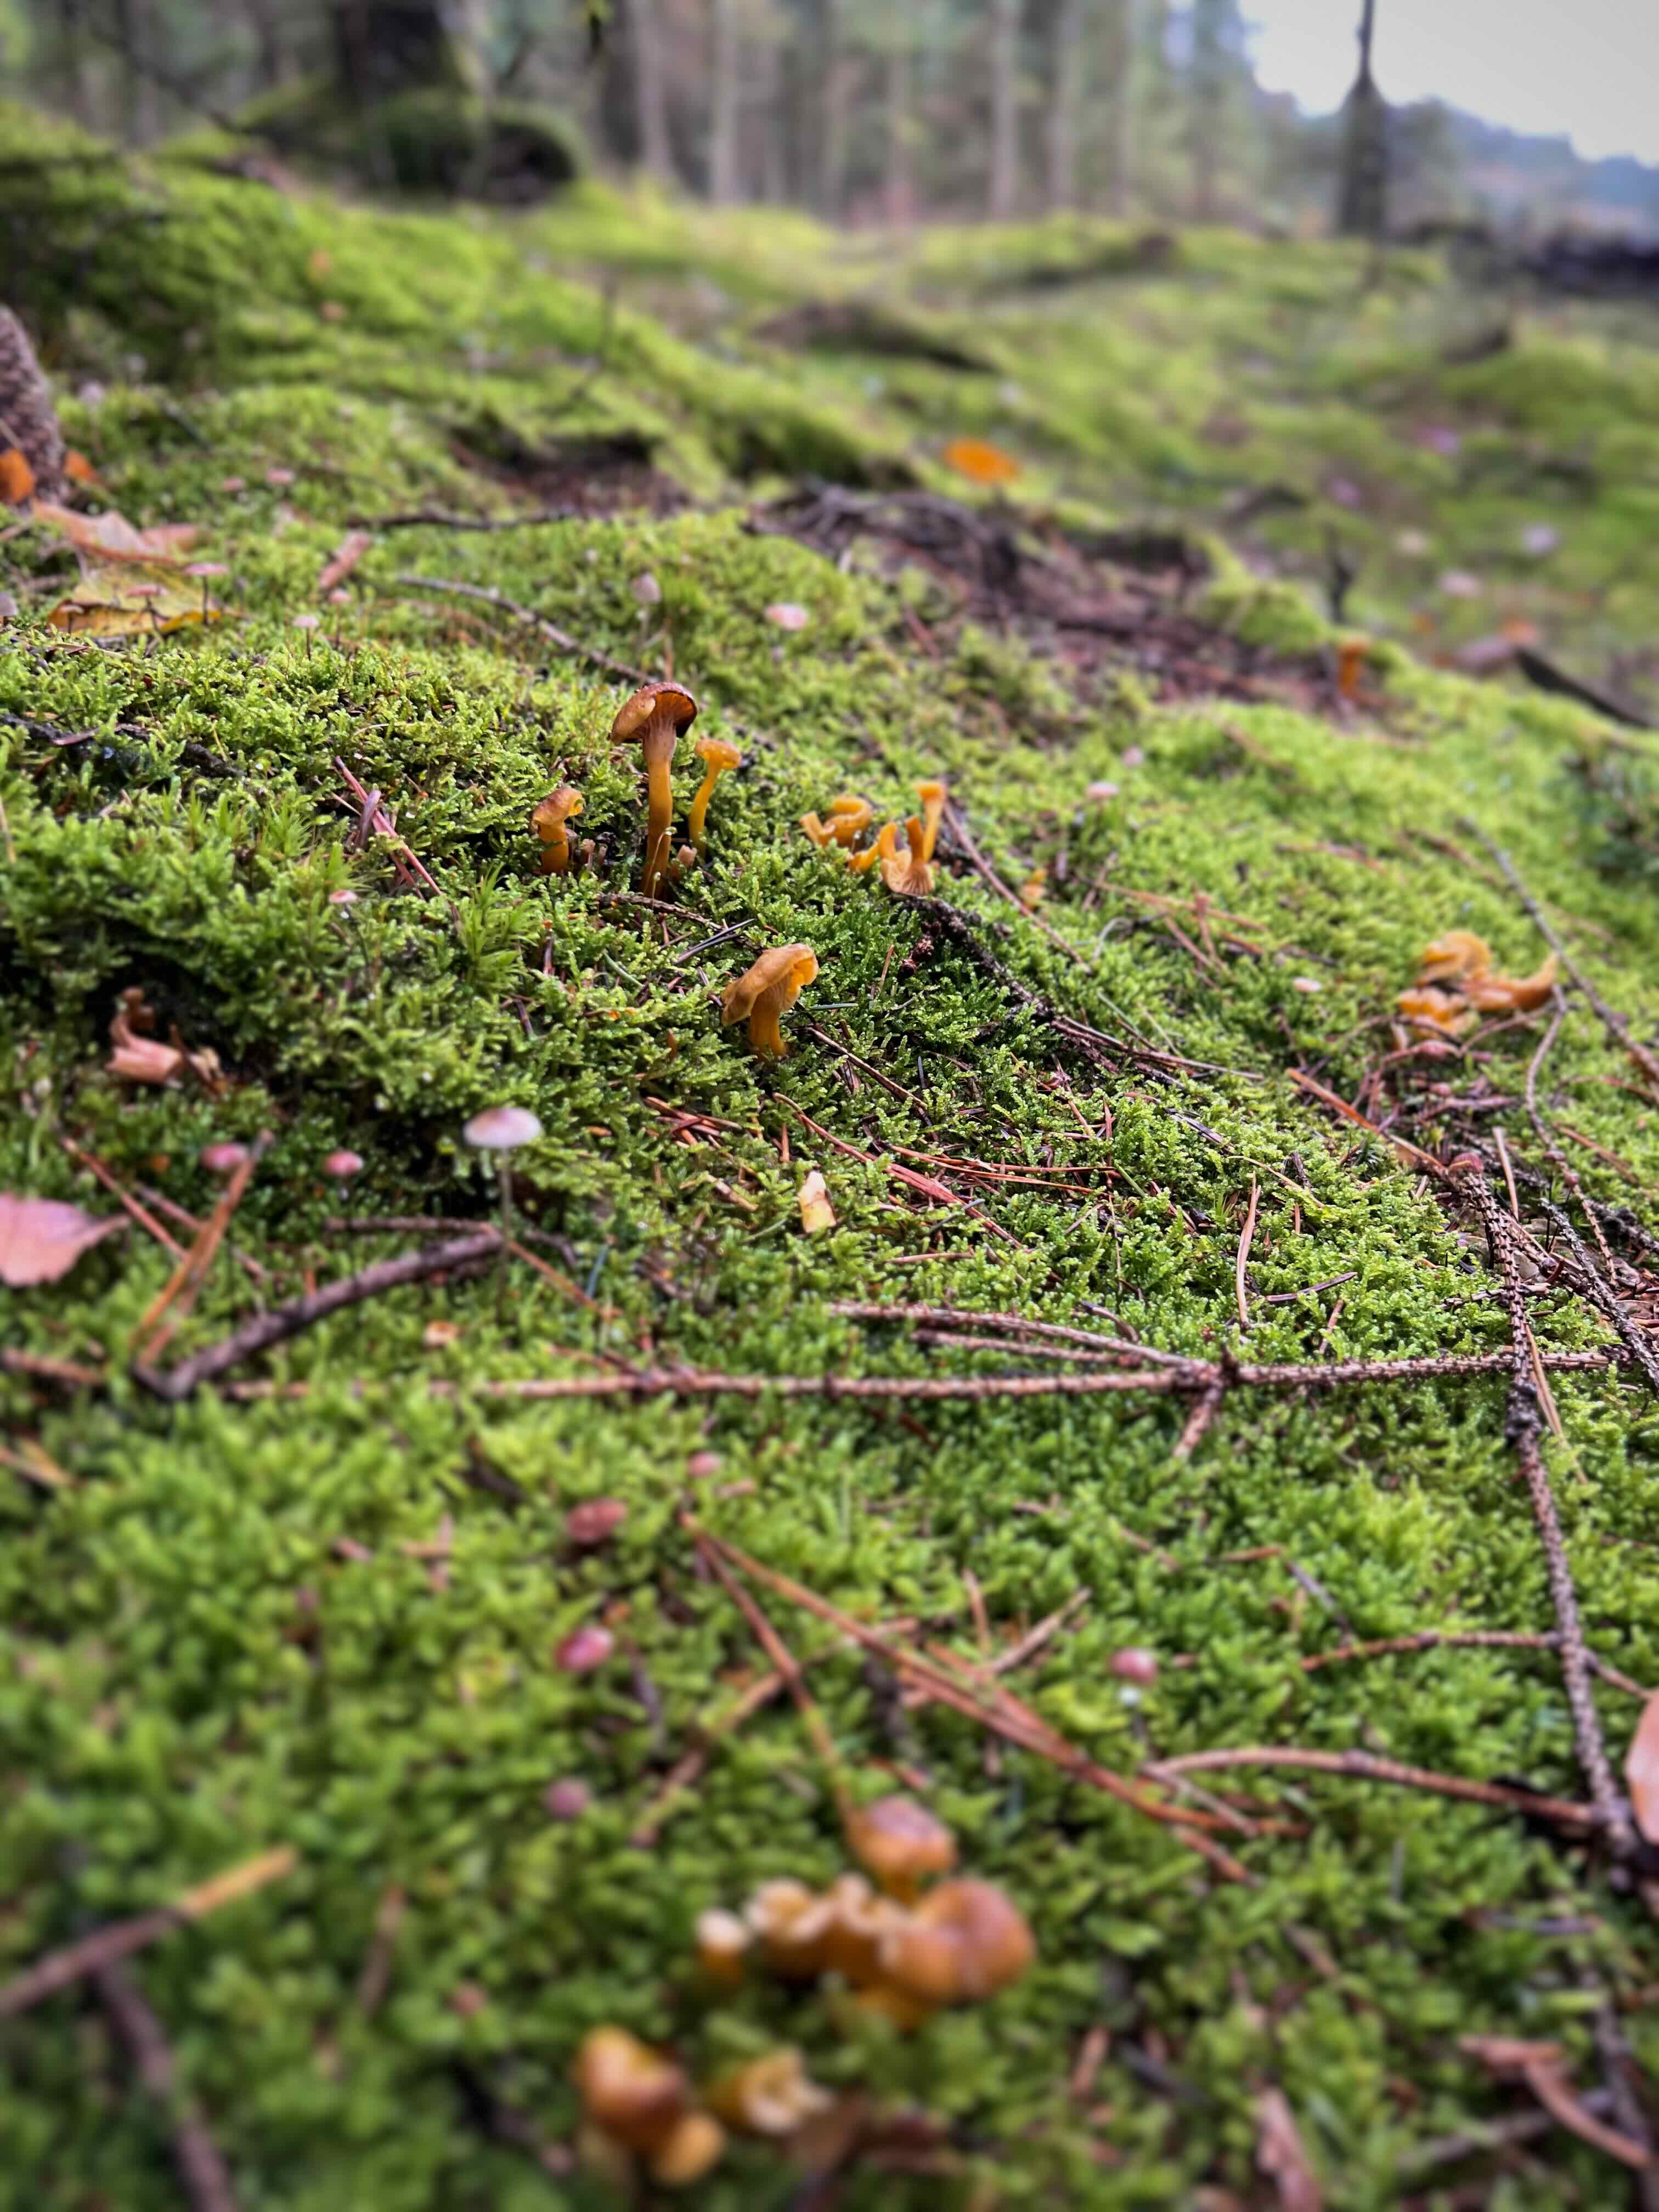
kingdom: Fungi
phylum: Basidiomycota
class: Agaricomycetes
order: Cantharellales
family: Hydnaceae
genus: Craterellus
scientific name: Craterellus tubaeformis
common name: tragt-kantarel
